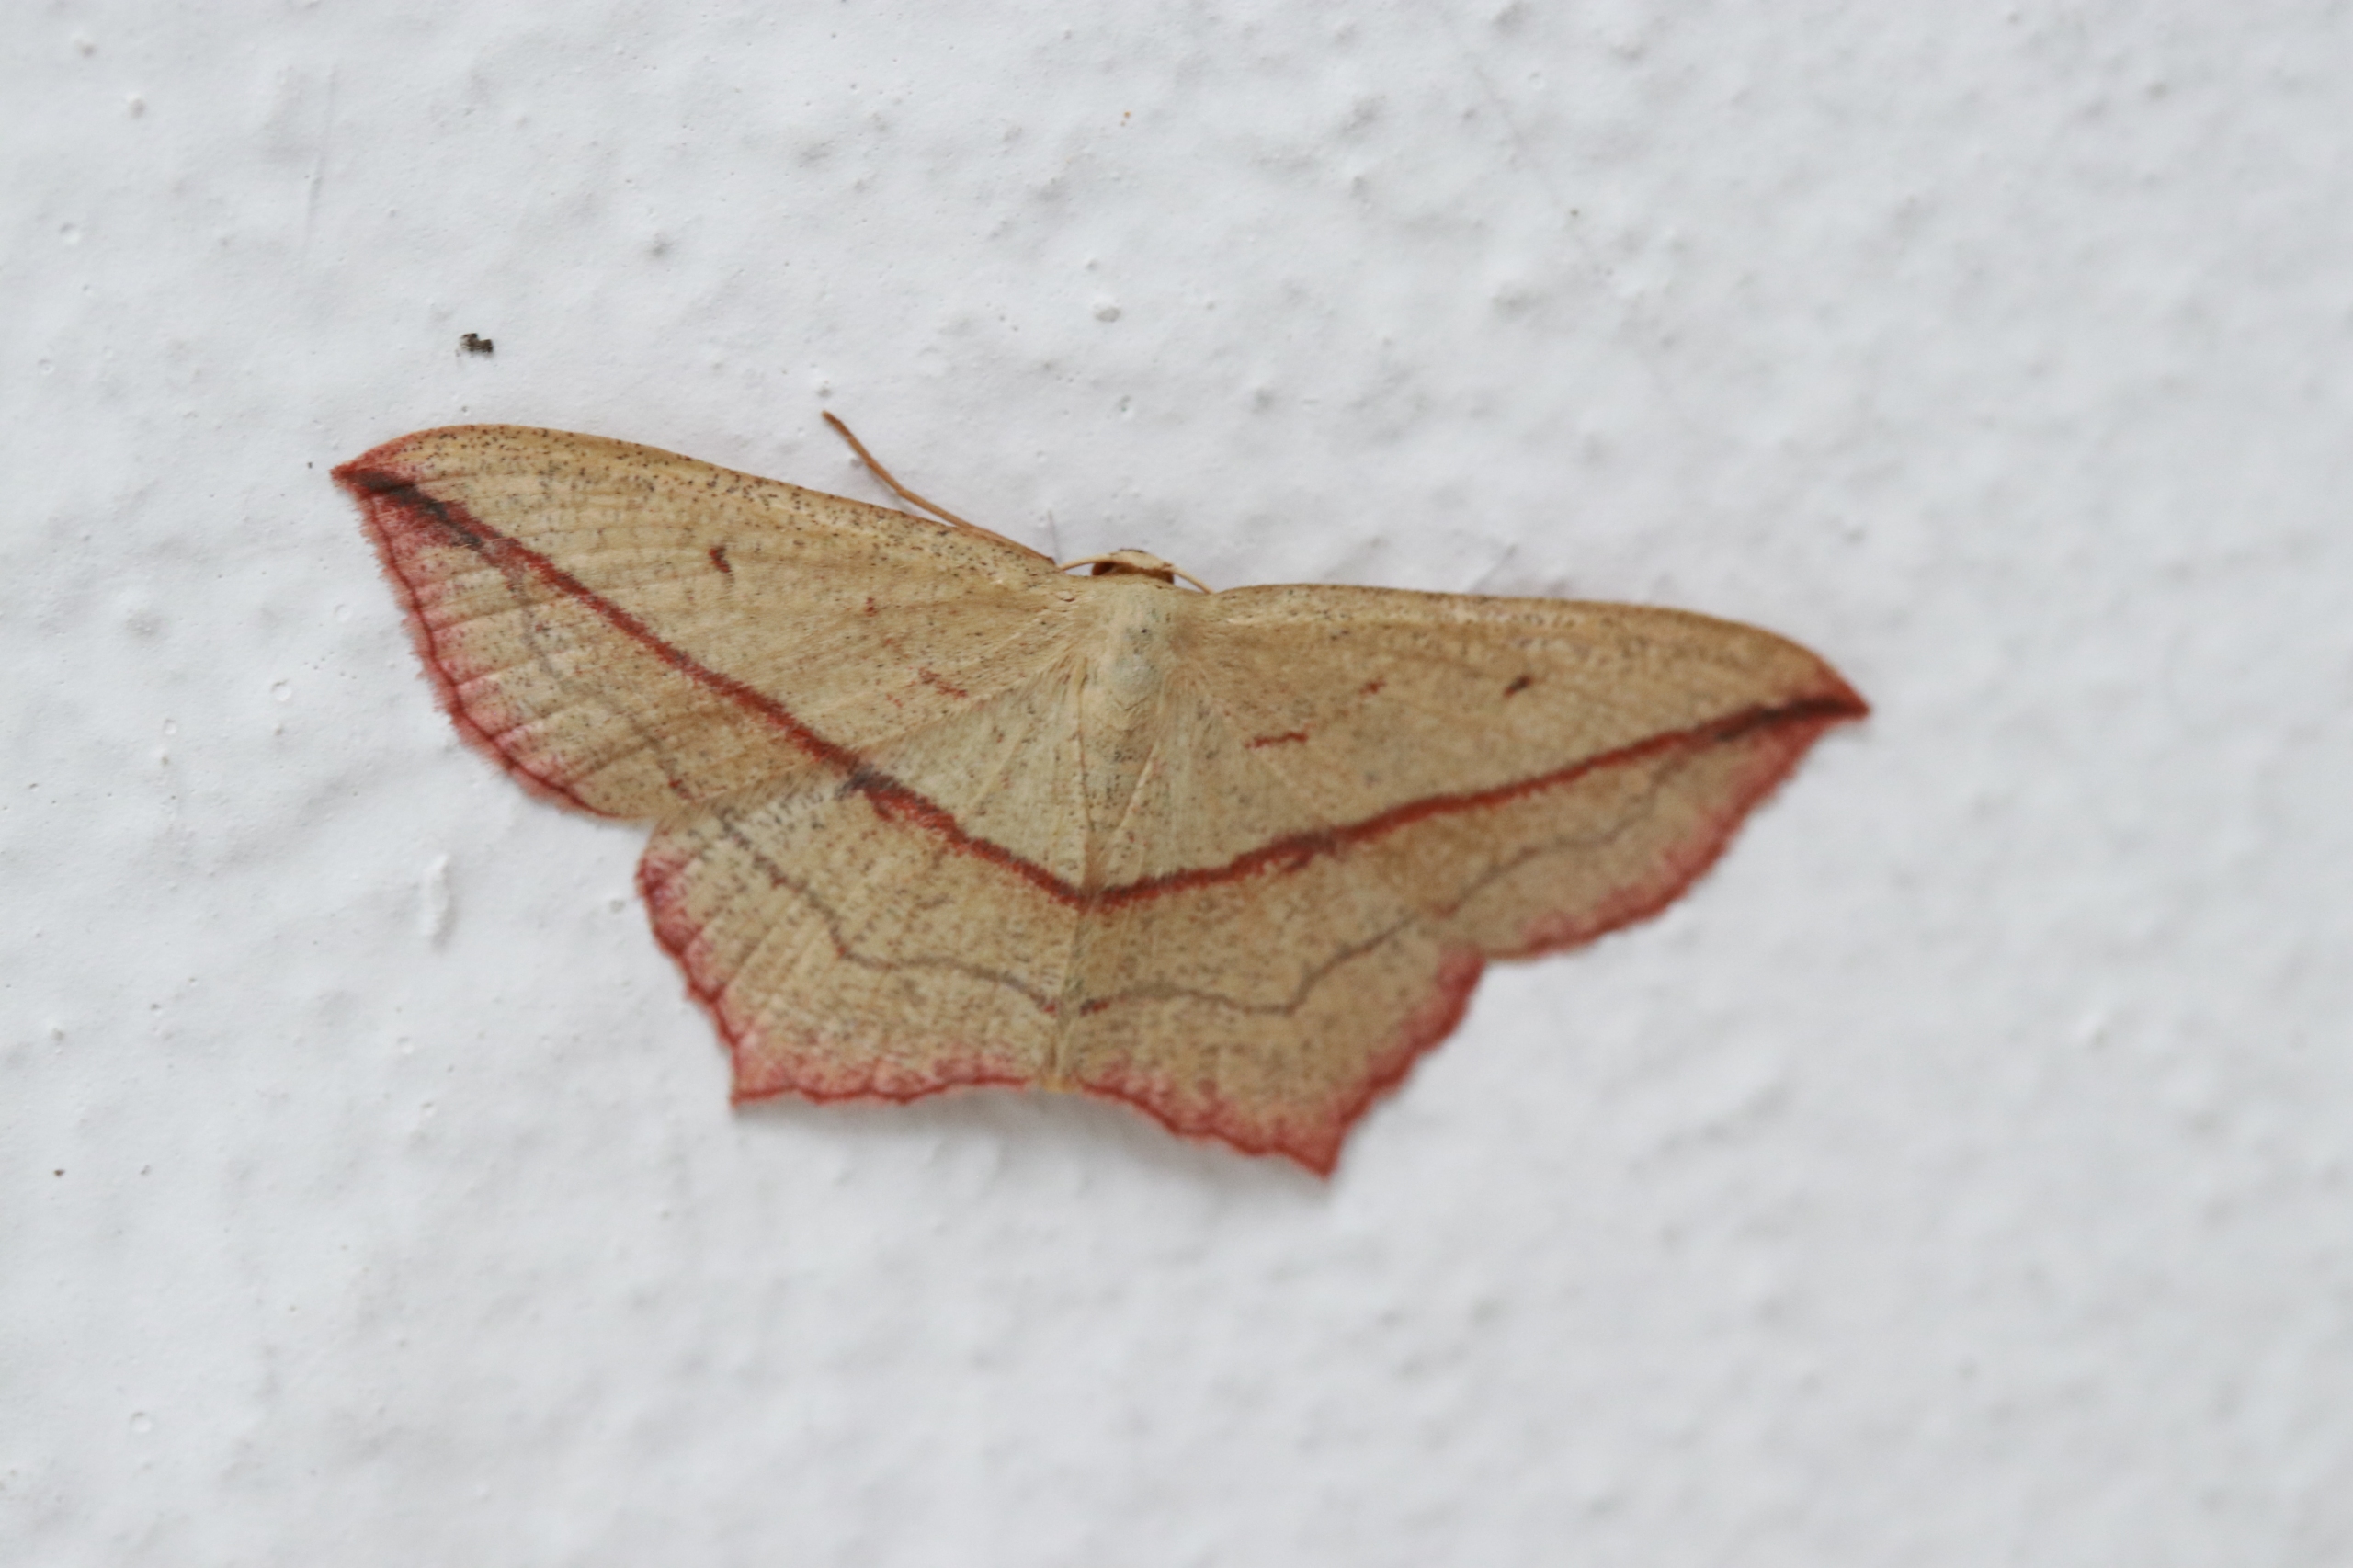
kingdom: Animalia
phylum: Arthropoda
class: Insecta
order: Lepidoptera
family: Geometridae
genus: Timandra
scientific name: Timandra comae
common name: Gul syremåler
